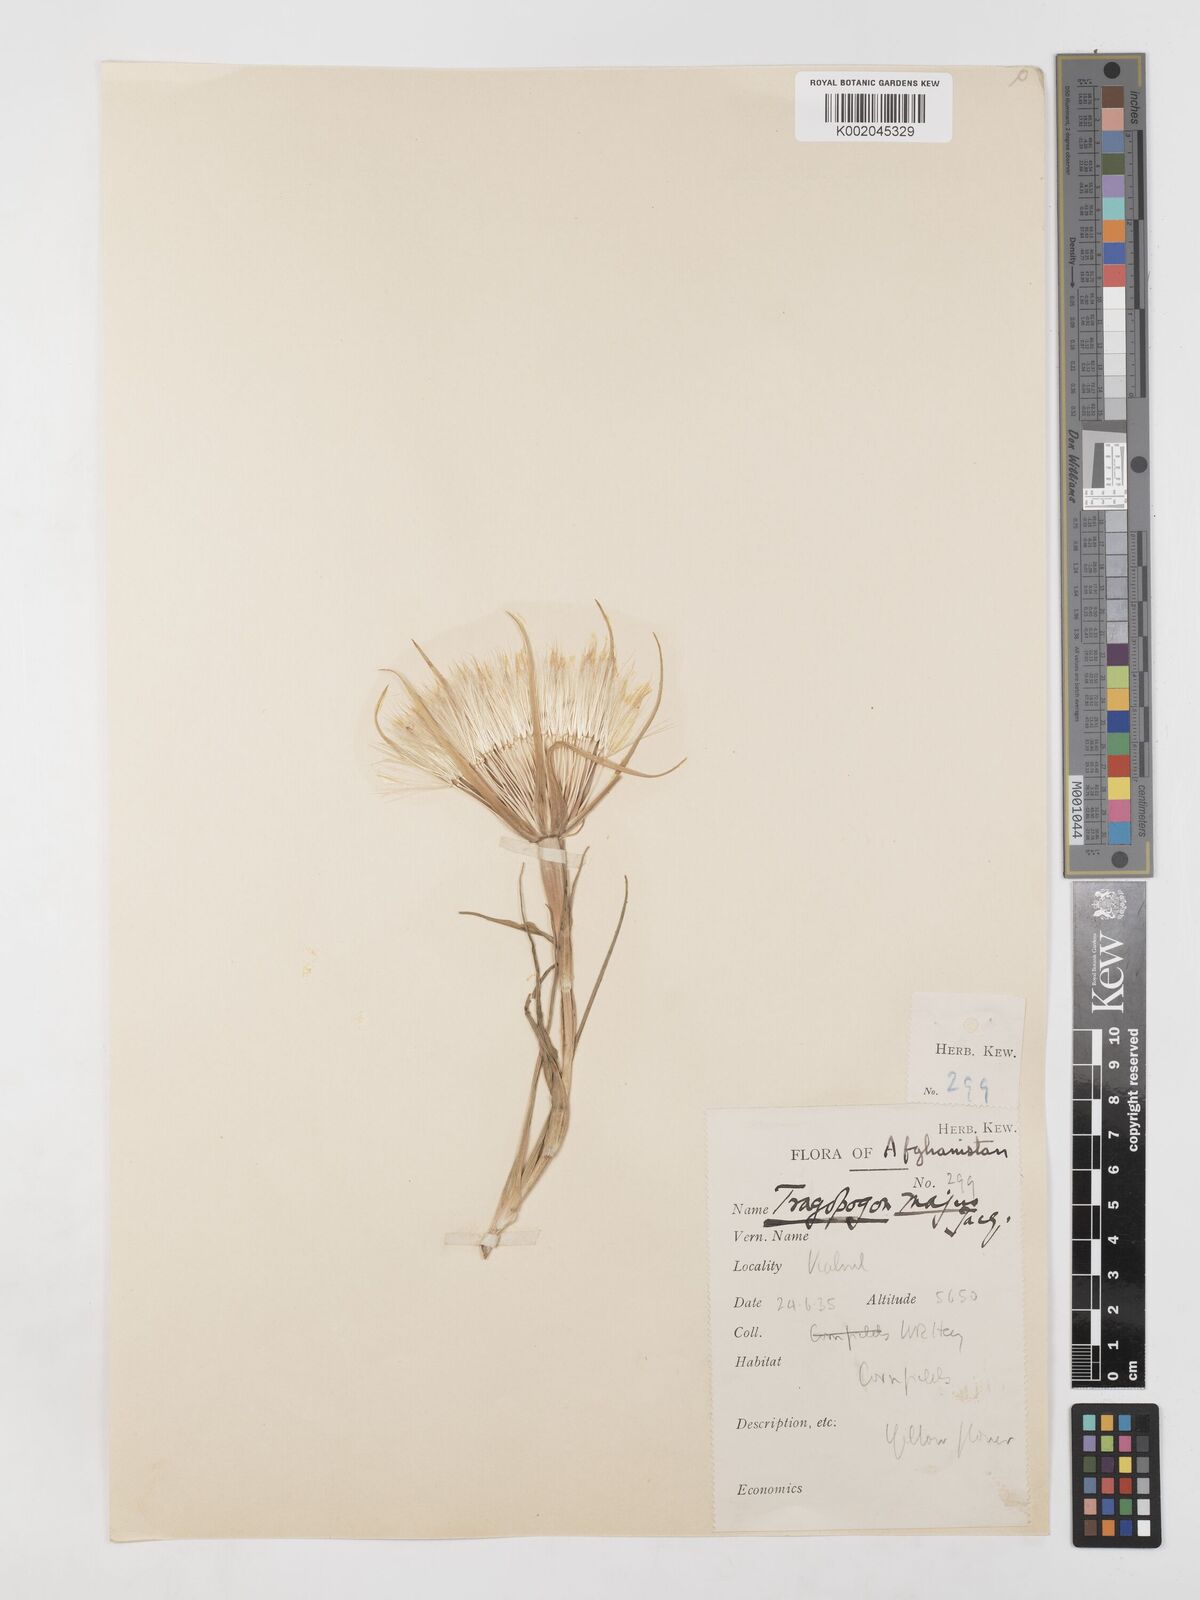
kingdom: Plantae
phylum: Tracheophyta
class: Magnoliopsida
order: Asterales
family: Asteraceae
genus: Tragopogon
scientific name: Tragopogon dubius
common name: Yellow salsify
